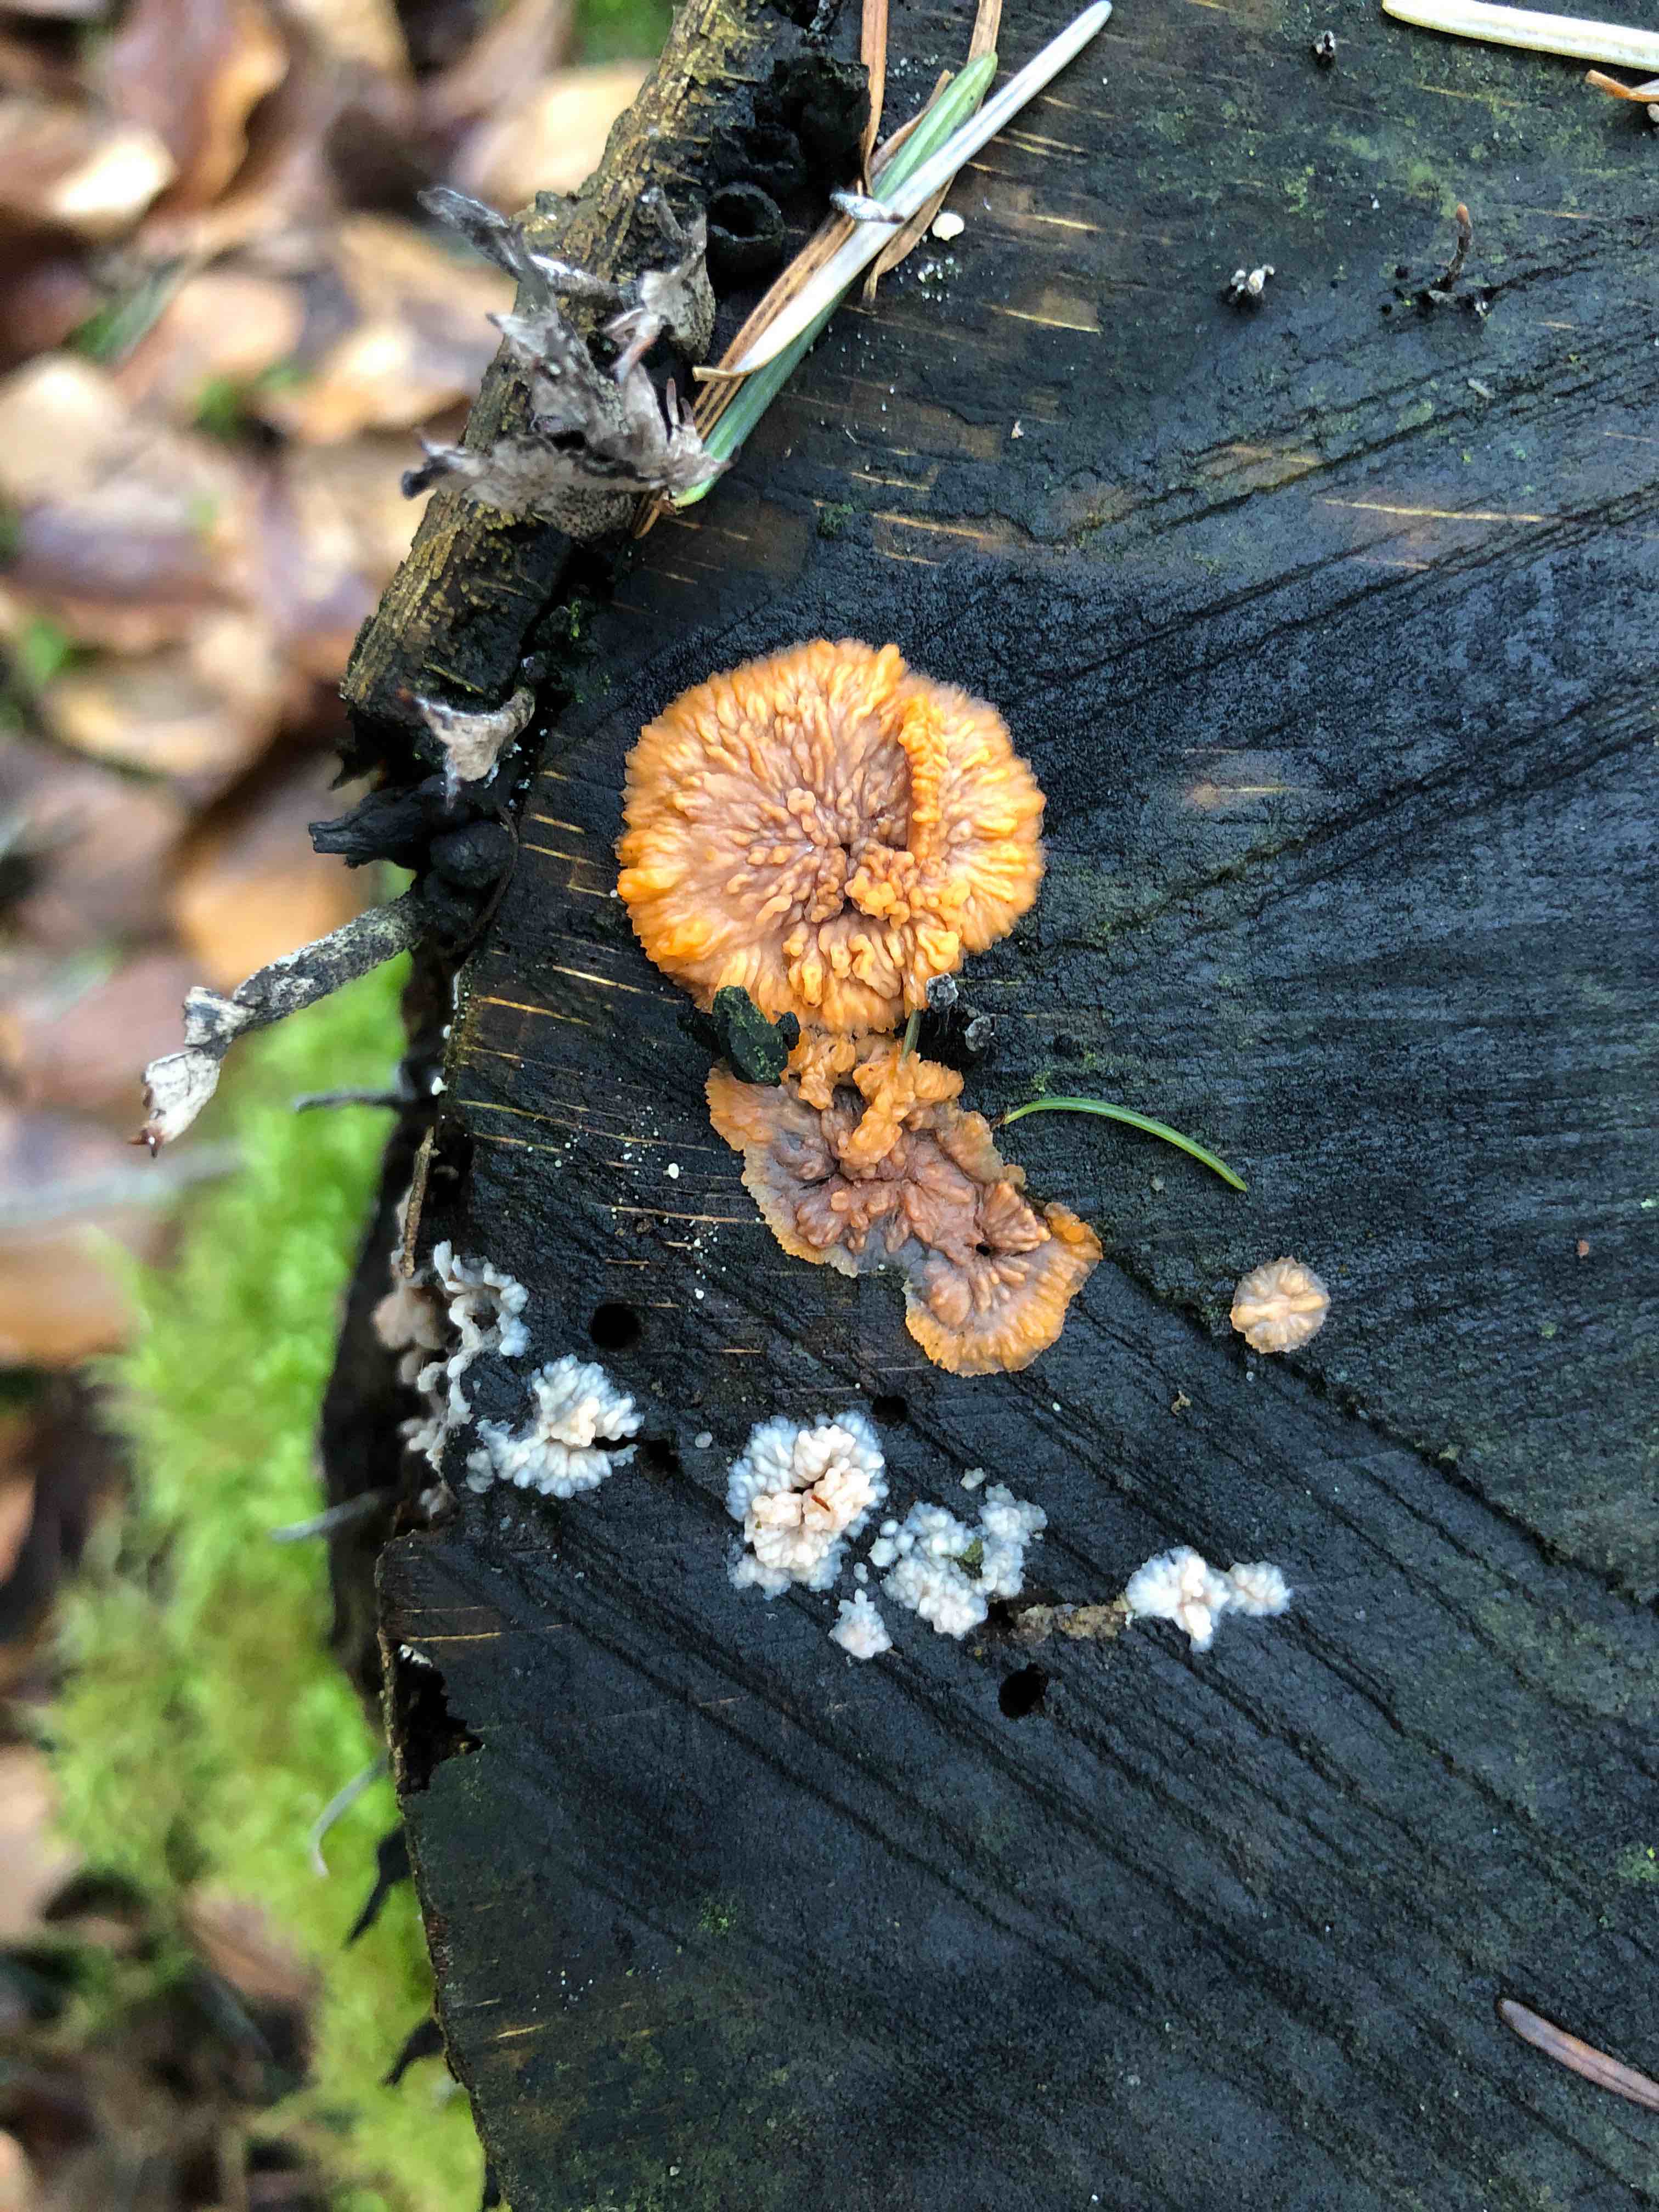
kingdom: Fungi
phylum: Basidiomycota
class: Agaricomycetes
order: Polyporales
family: Meruliaceae
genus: Phlebia
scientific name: Phlebia radiata
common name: stråle-åresvamp
